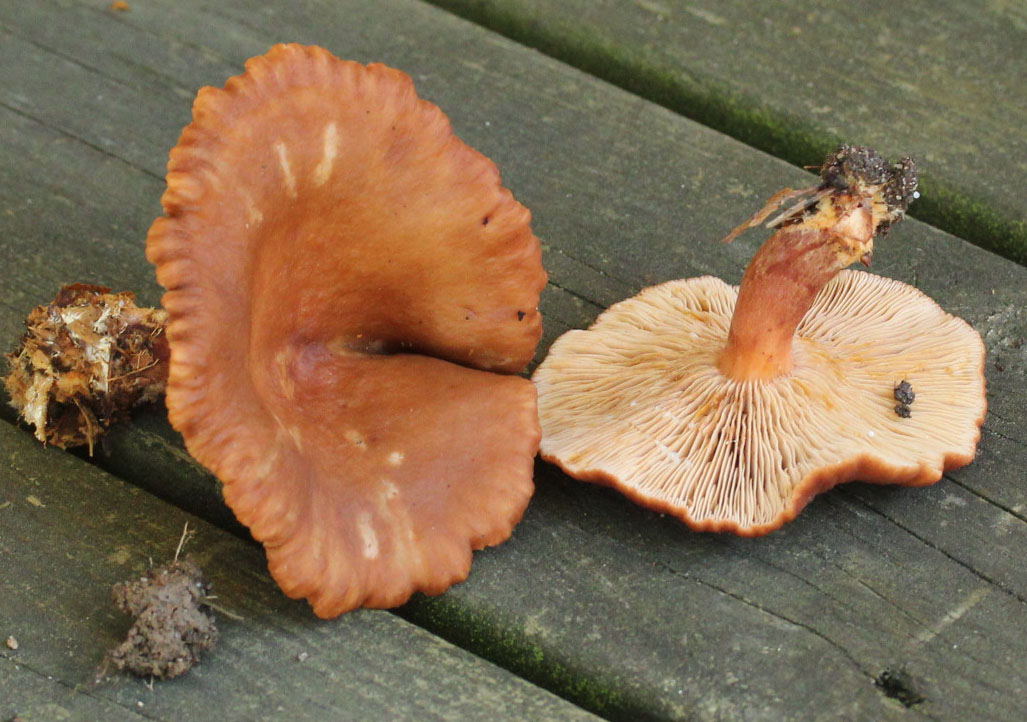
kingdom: Fungi
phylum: Basidiomycota
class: Agaricomycetes
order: Russulales
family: Russulaceae
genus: Lactarius
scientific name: Lactarius serifluus
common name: tæge-mælkehat
